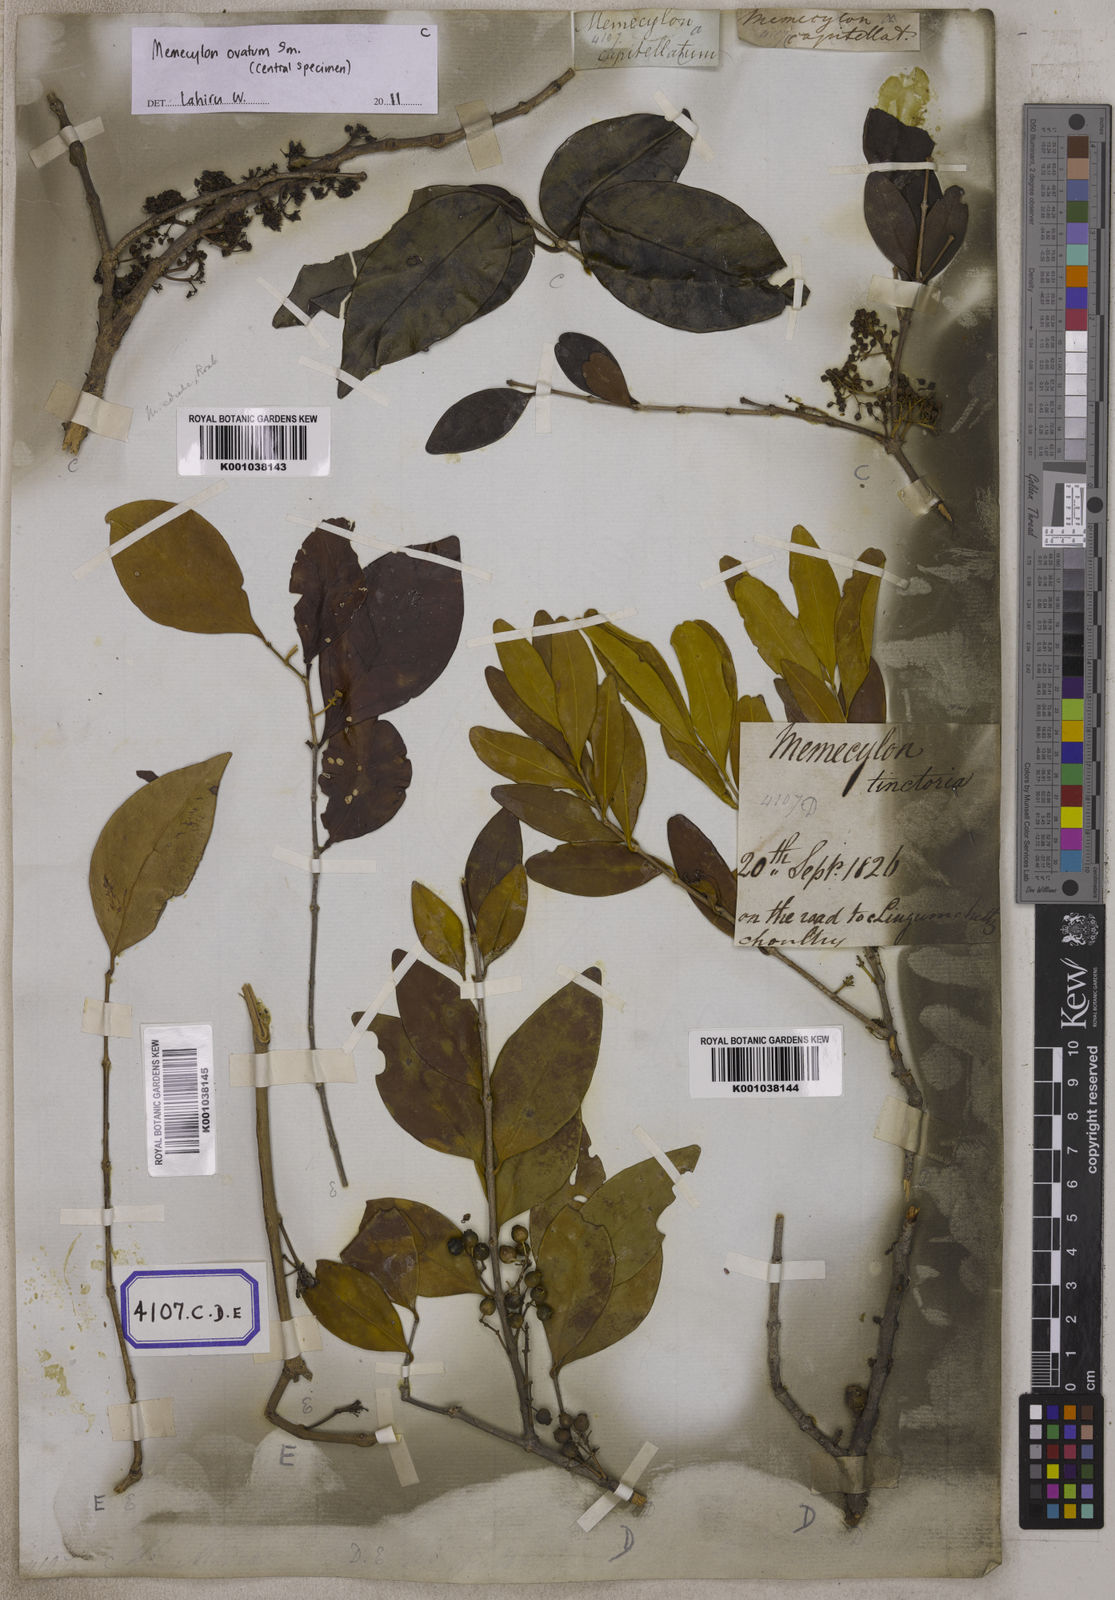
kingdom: Plantae
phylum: Tracheophyta
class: Magnoliopsida
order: Myrtales
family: Melastomataceae
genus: Memecylon
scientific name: Memecylon edule
